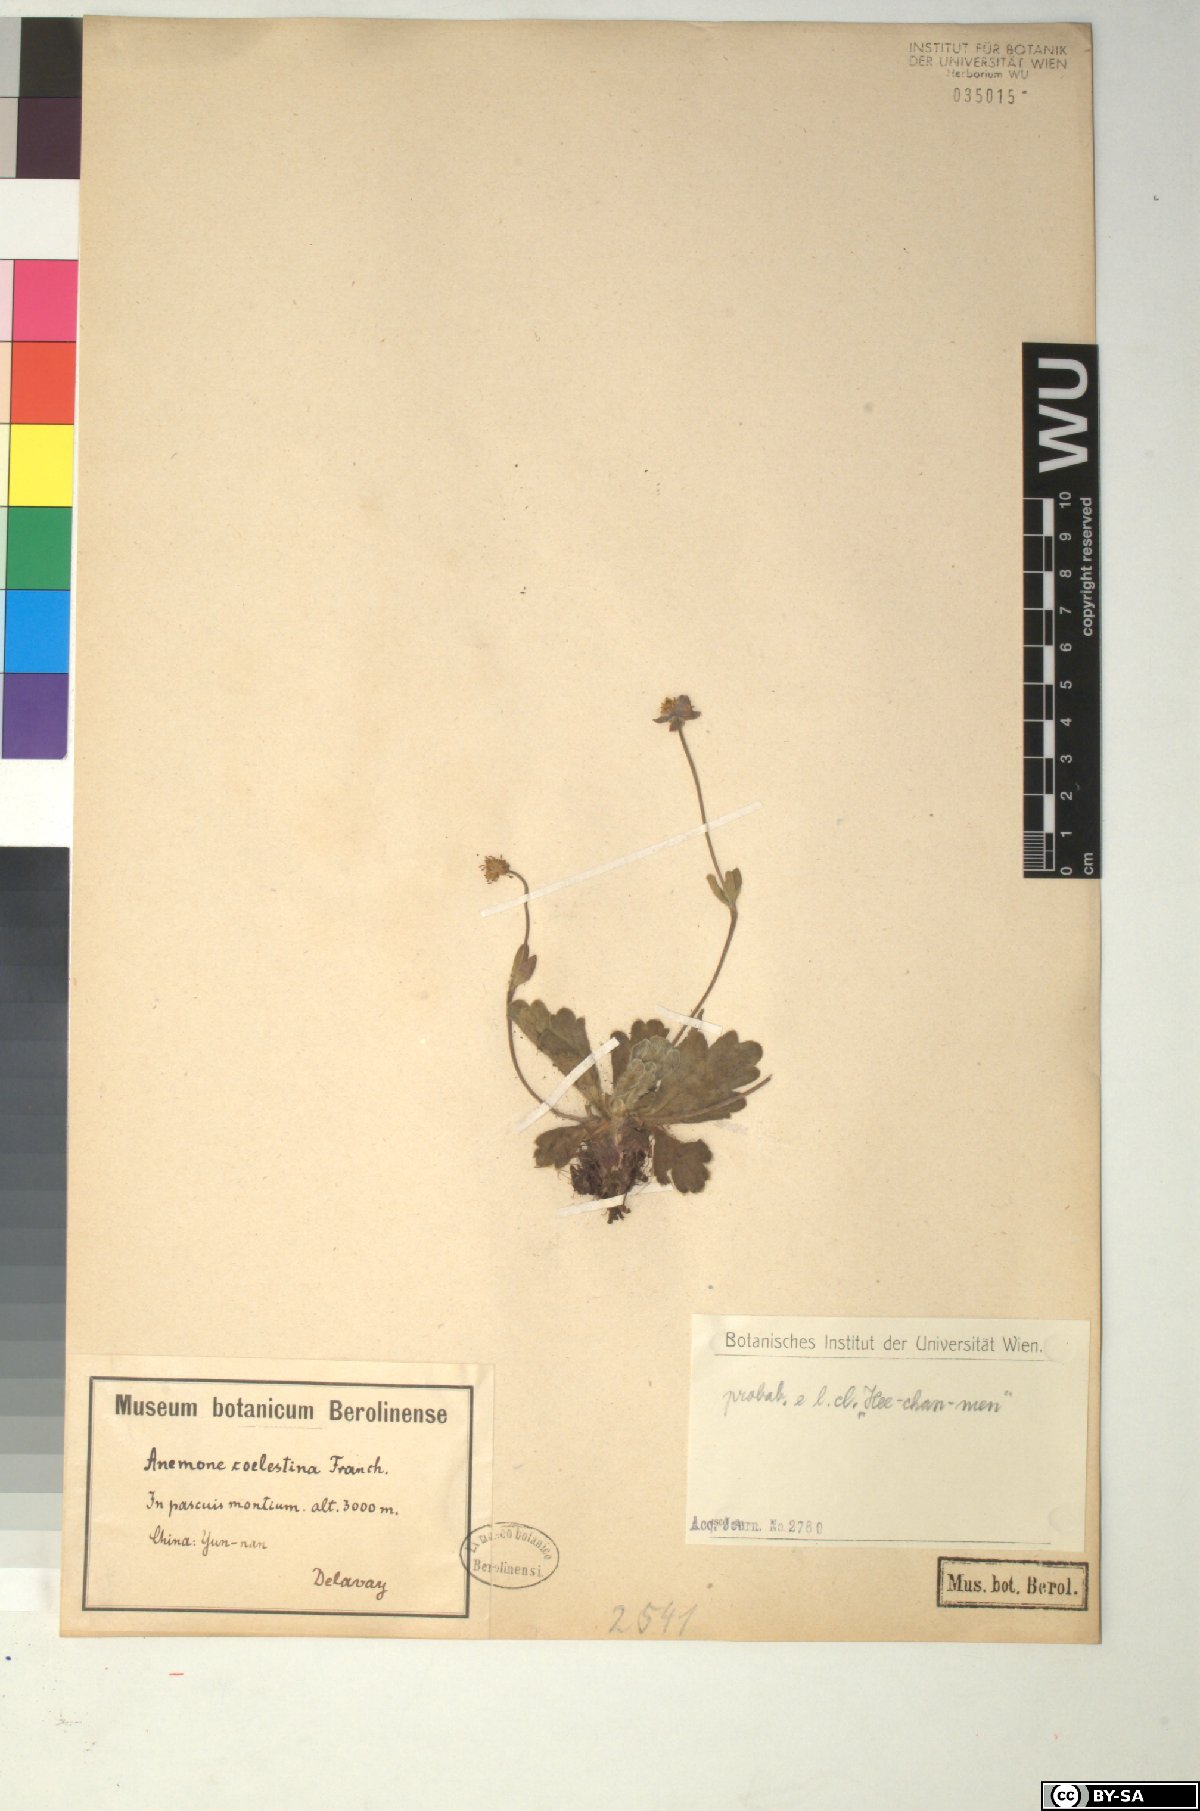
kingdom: Plantae
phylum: Tracheophyta
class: Magnoliopsida
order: Ranunculales
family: Ranunculaceae
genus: Anemonastrum
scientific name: Anemonastrum coelestinum
